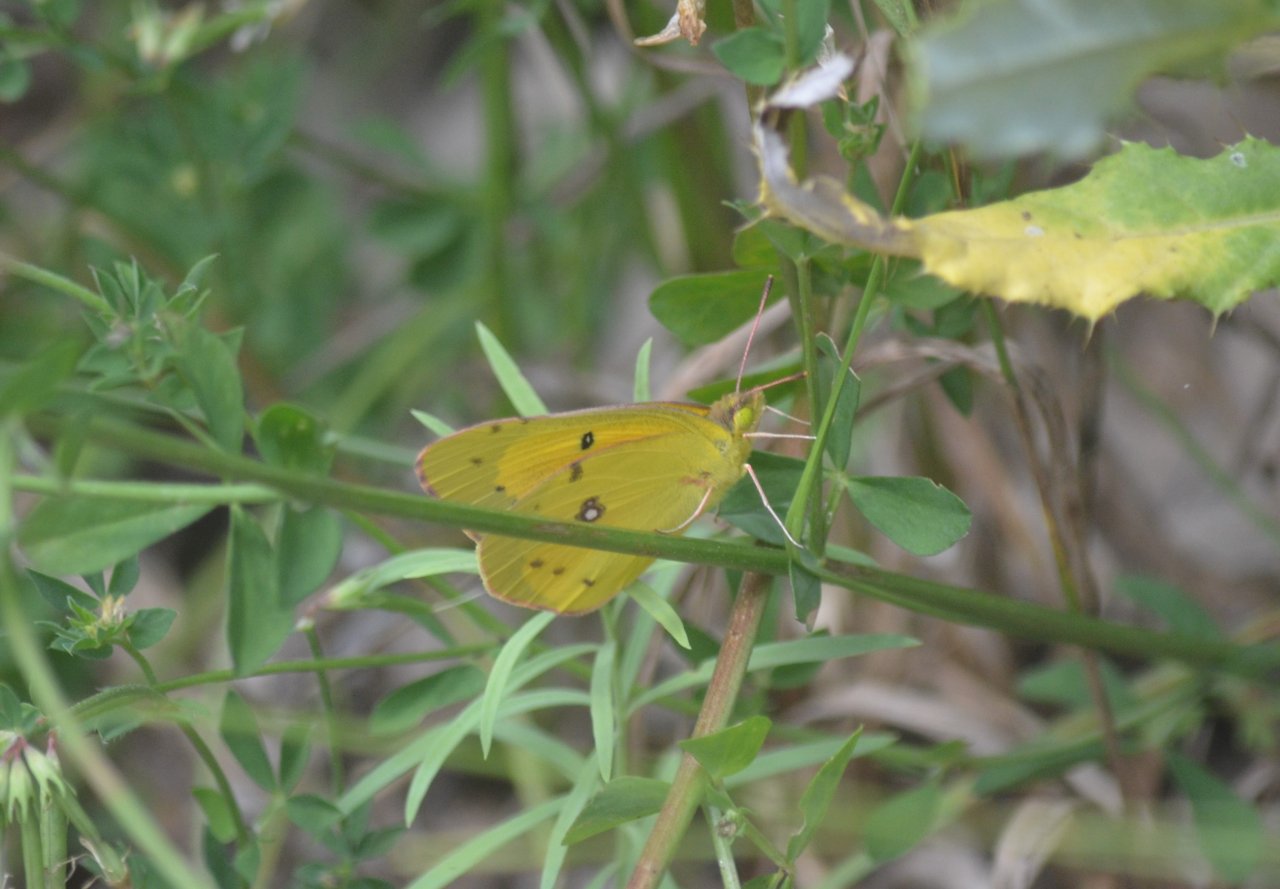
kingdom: Animalia
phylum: Arthropoda
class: Insecta
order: Lepidoptera
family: Pieridae
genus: Colias
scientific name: Colias eurytheme
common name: Orange Sulphur
